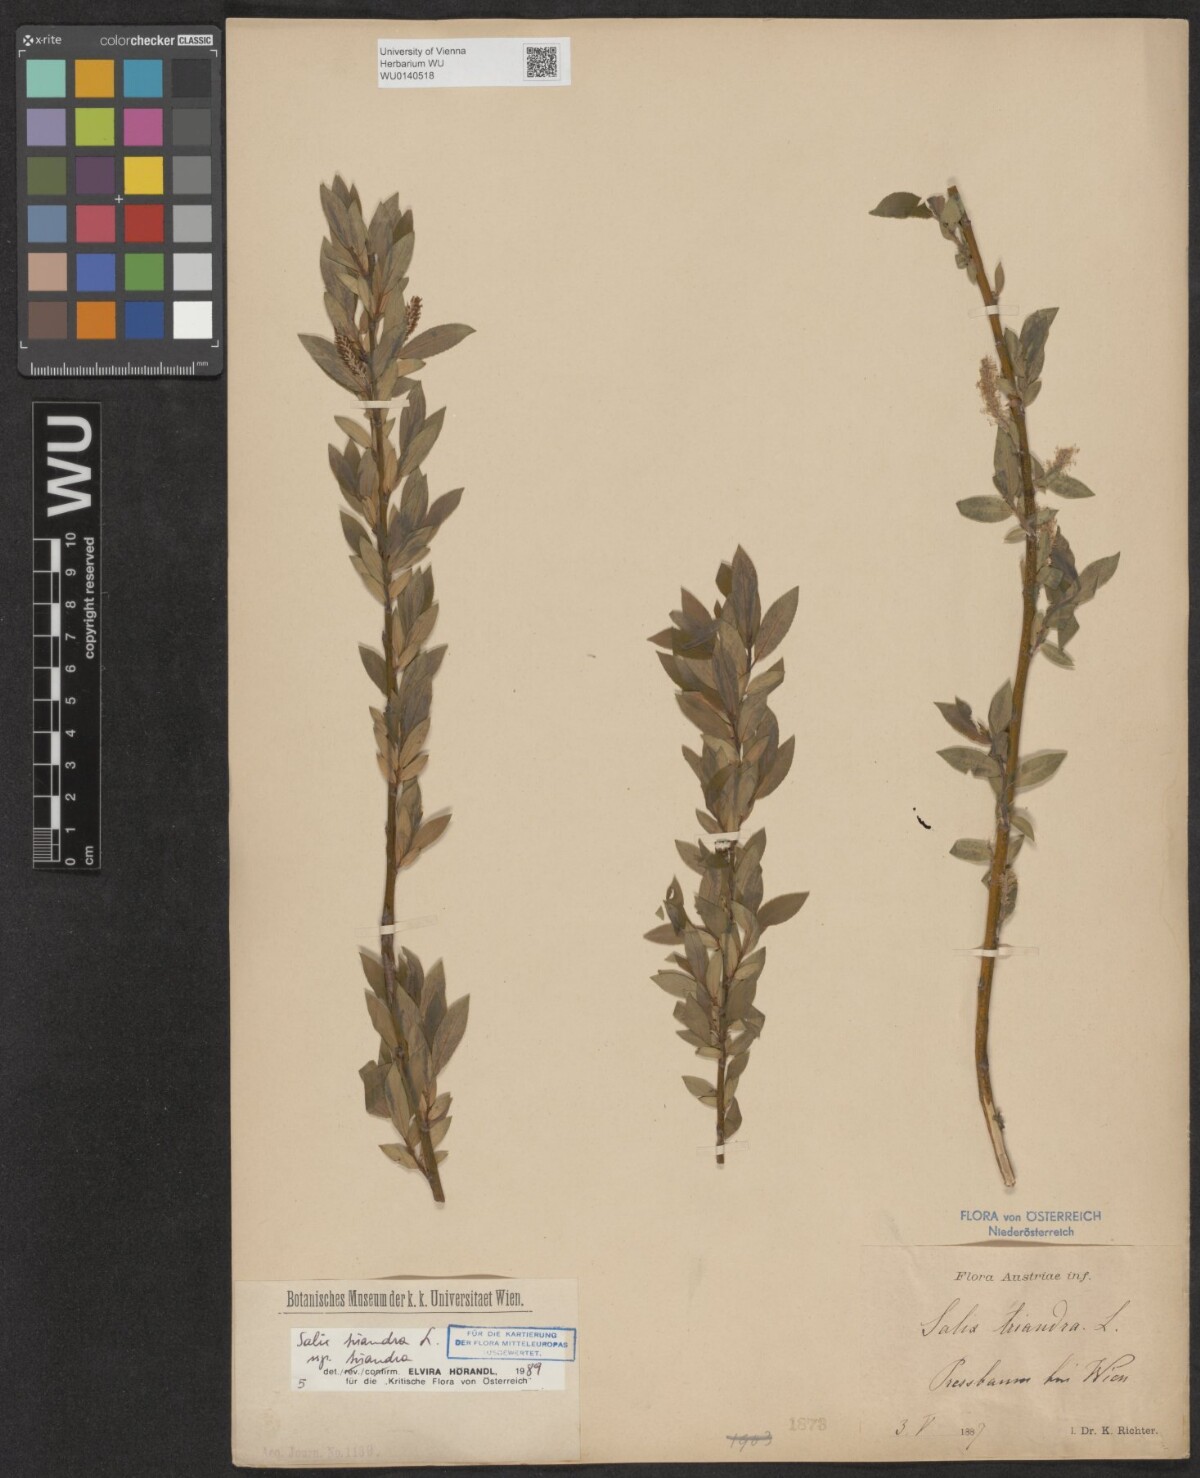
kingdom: Plantae
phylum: Tracheophyta
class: Magnoliopsida
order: Malpighiales
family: Salicaceae
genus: Salix
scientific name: Salix triandra
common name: Almond willow
